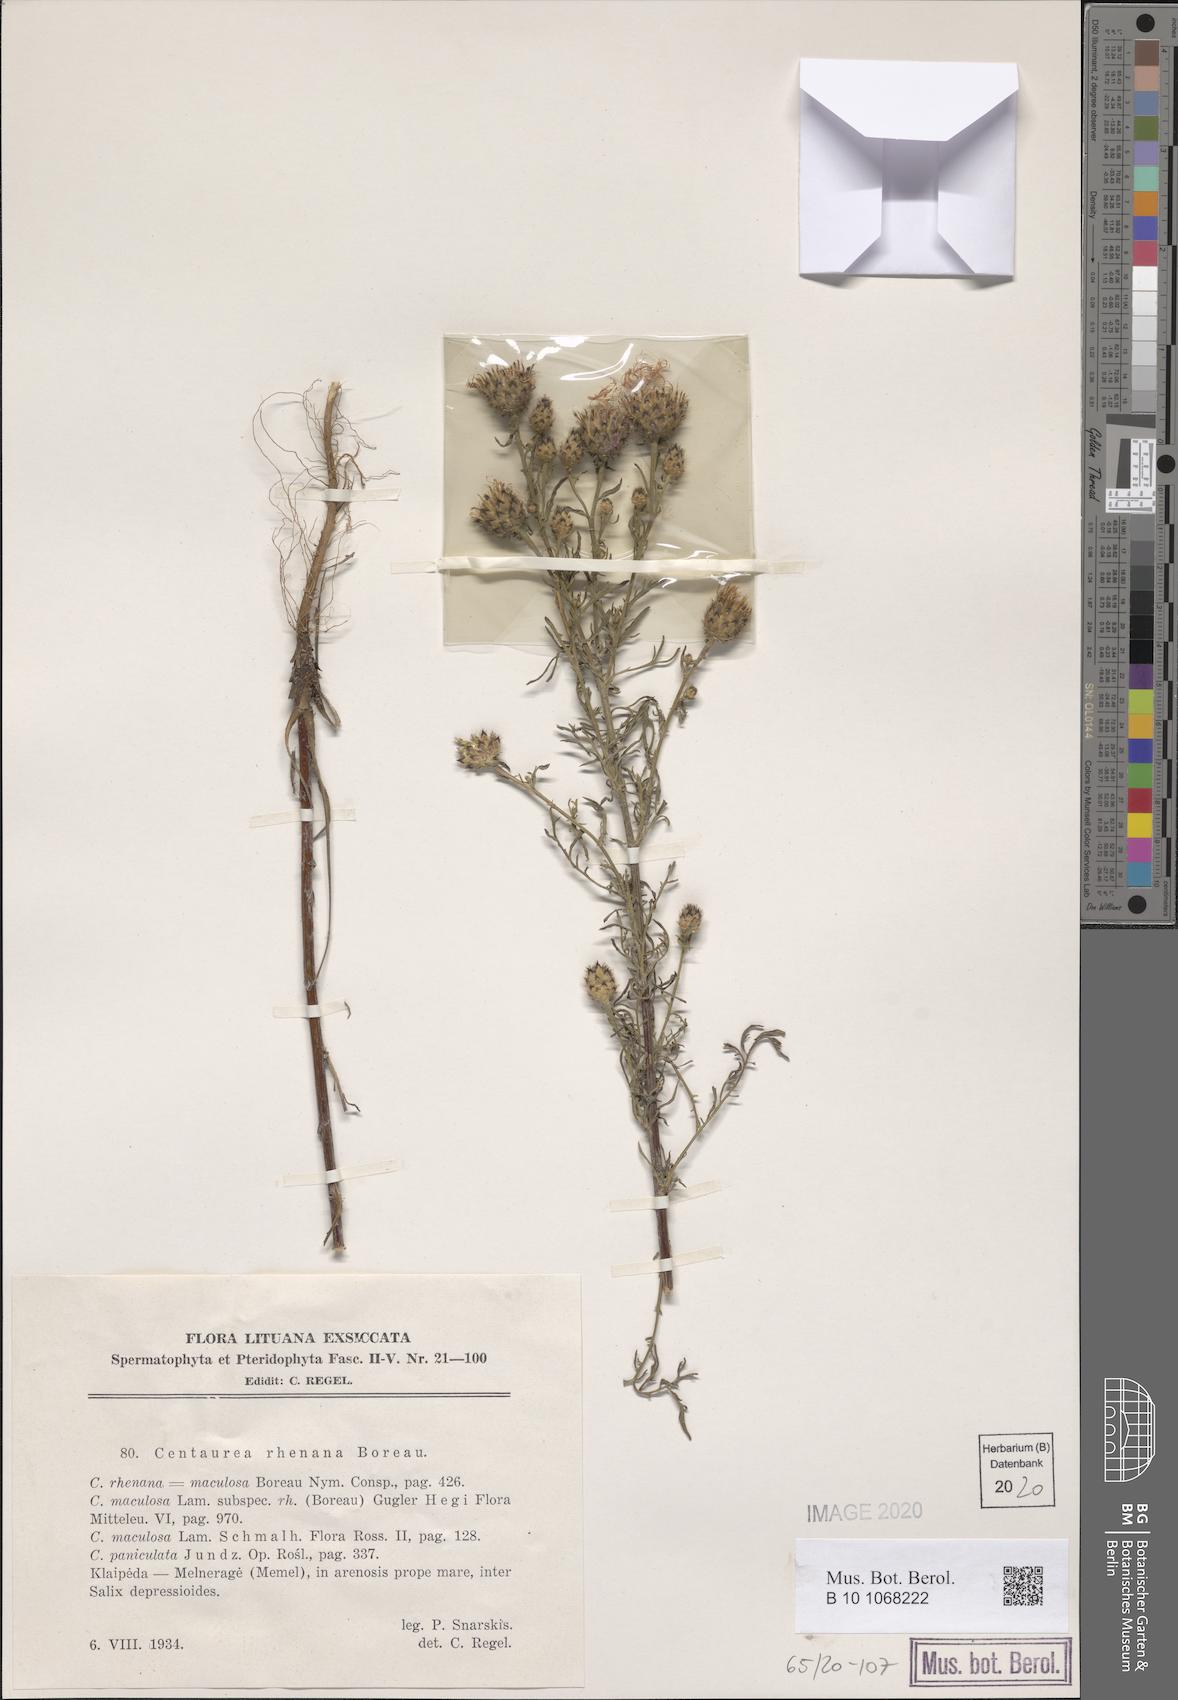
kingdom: Plantae
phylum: Tracheophyta
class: Magnoliopsida
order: Asterales
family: Asteraceae
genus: Centaurea
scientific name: Centaurea stoebe
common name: Spotted knapweed
